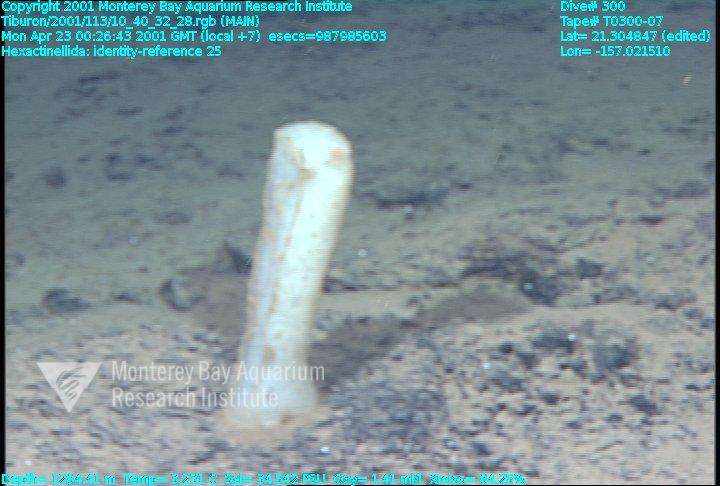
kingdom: Animalia
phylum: Porifera
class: Hexactinellida
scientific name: Hexactinellida
